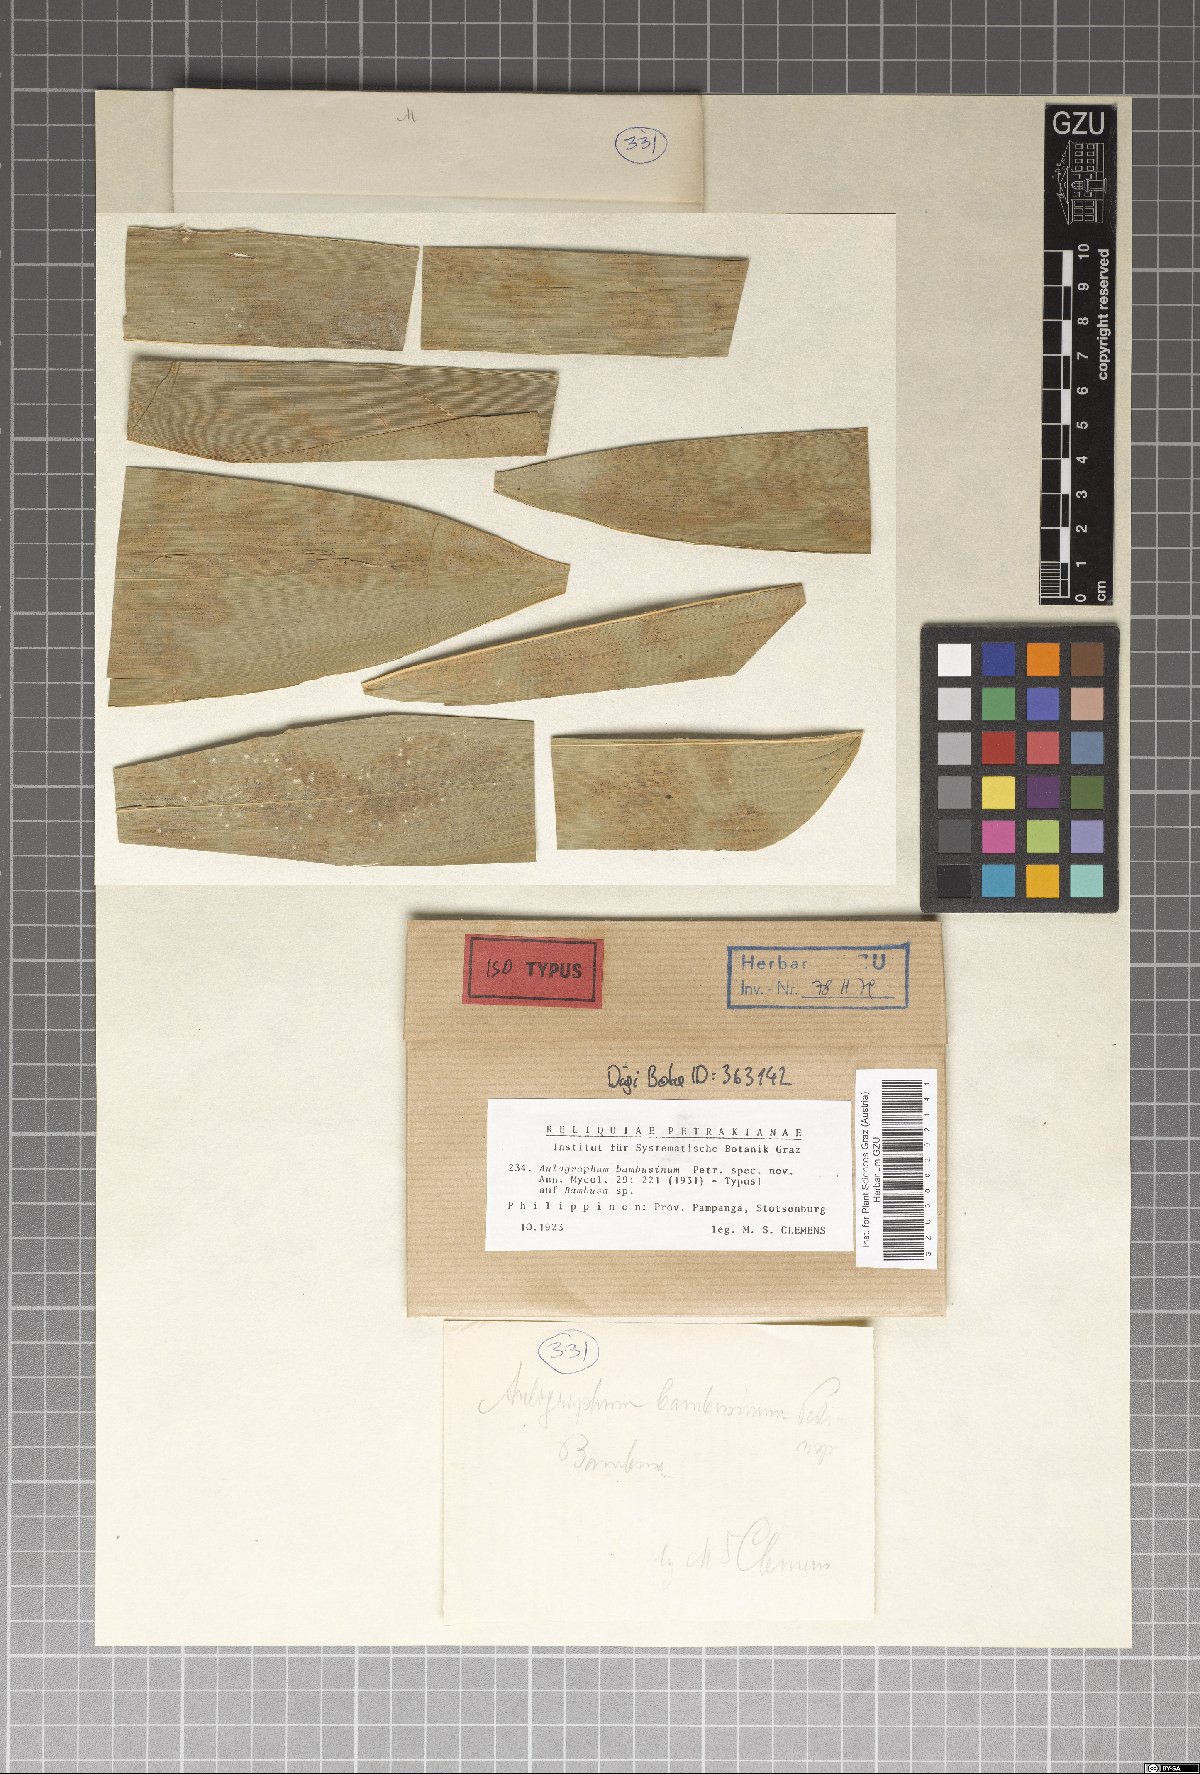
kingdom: Fungi
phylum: Ascomycota
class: Dothideomycetes
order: Asterinales
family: Aulographaceae
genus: Aulographum
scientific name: Aulographum bambusinum
